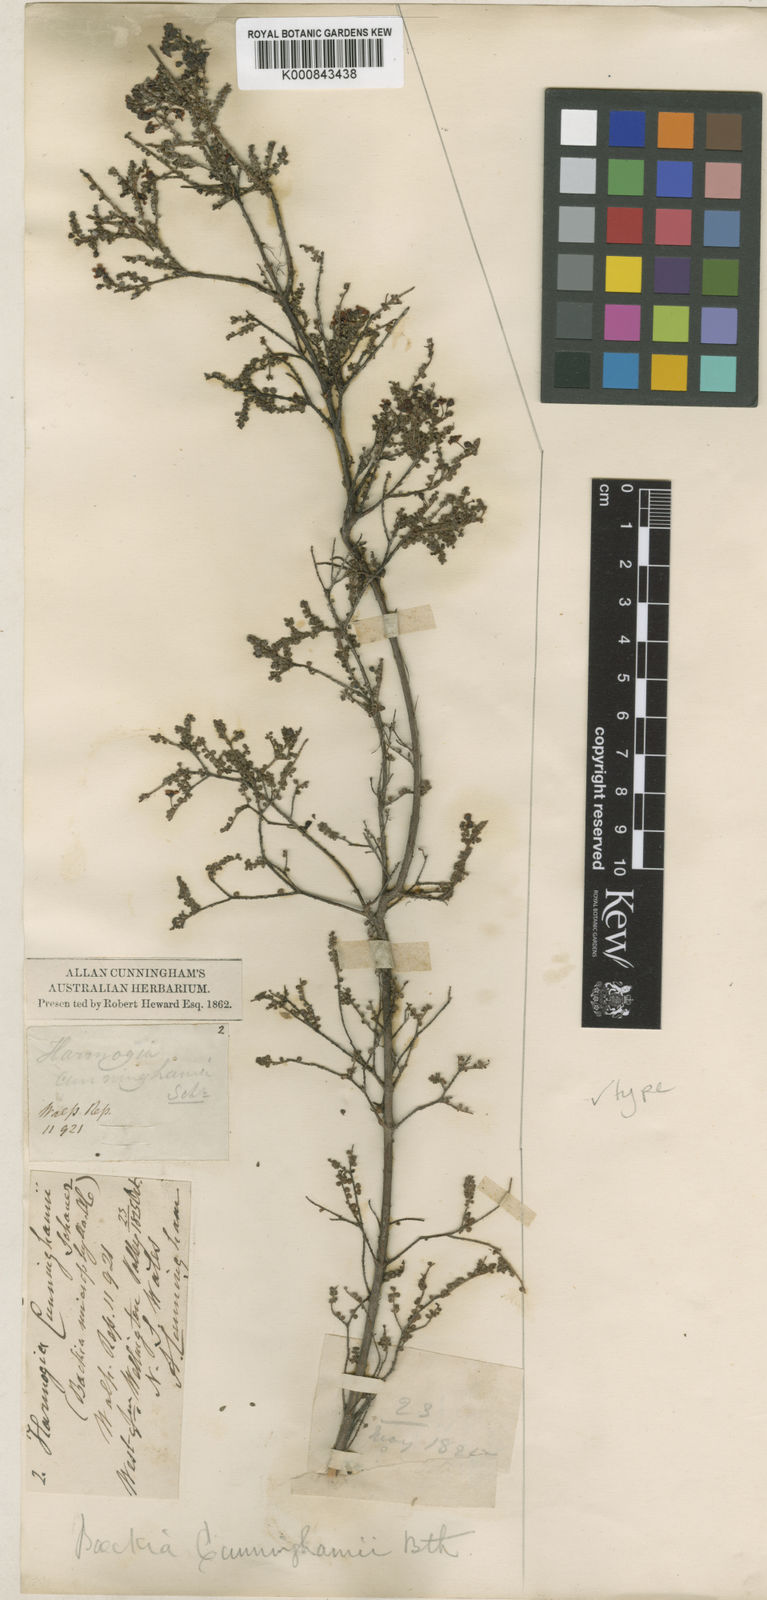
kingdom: Plantae
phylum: Tracheophyta
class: Magnoliopsida
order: Myrtales
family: Myrtaceae
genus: Sannantha
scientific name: Sannantha cunninghamii
